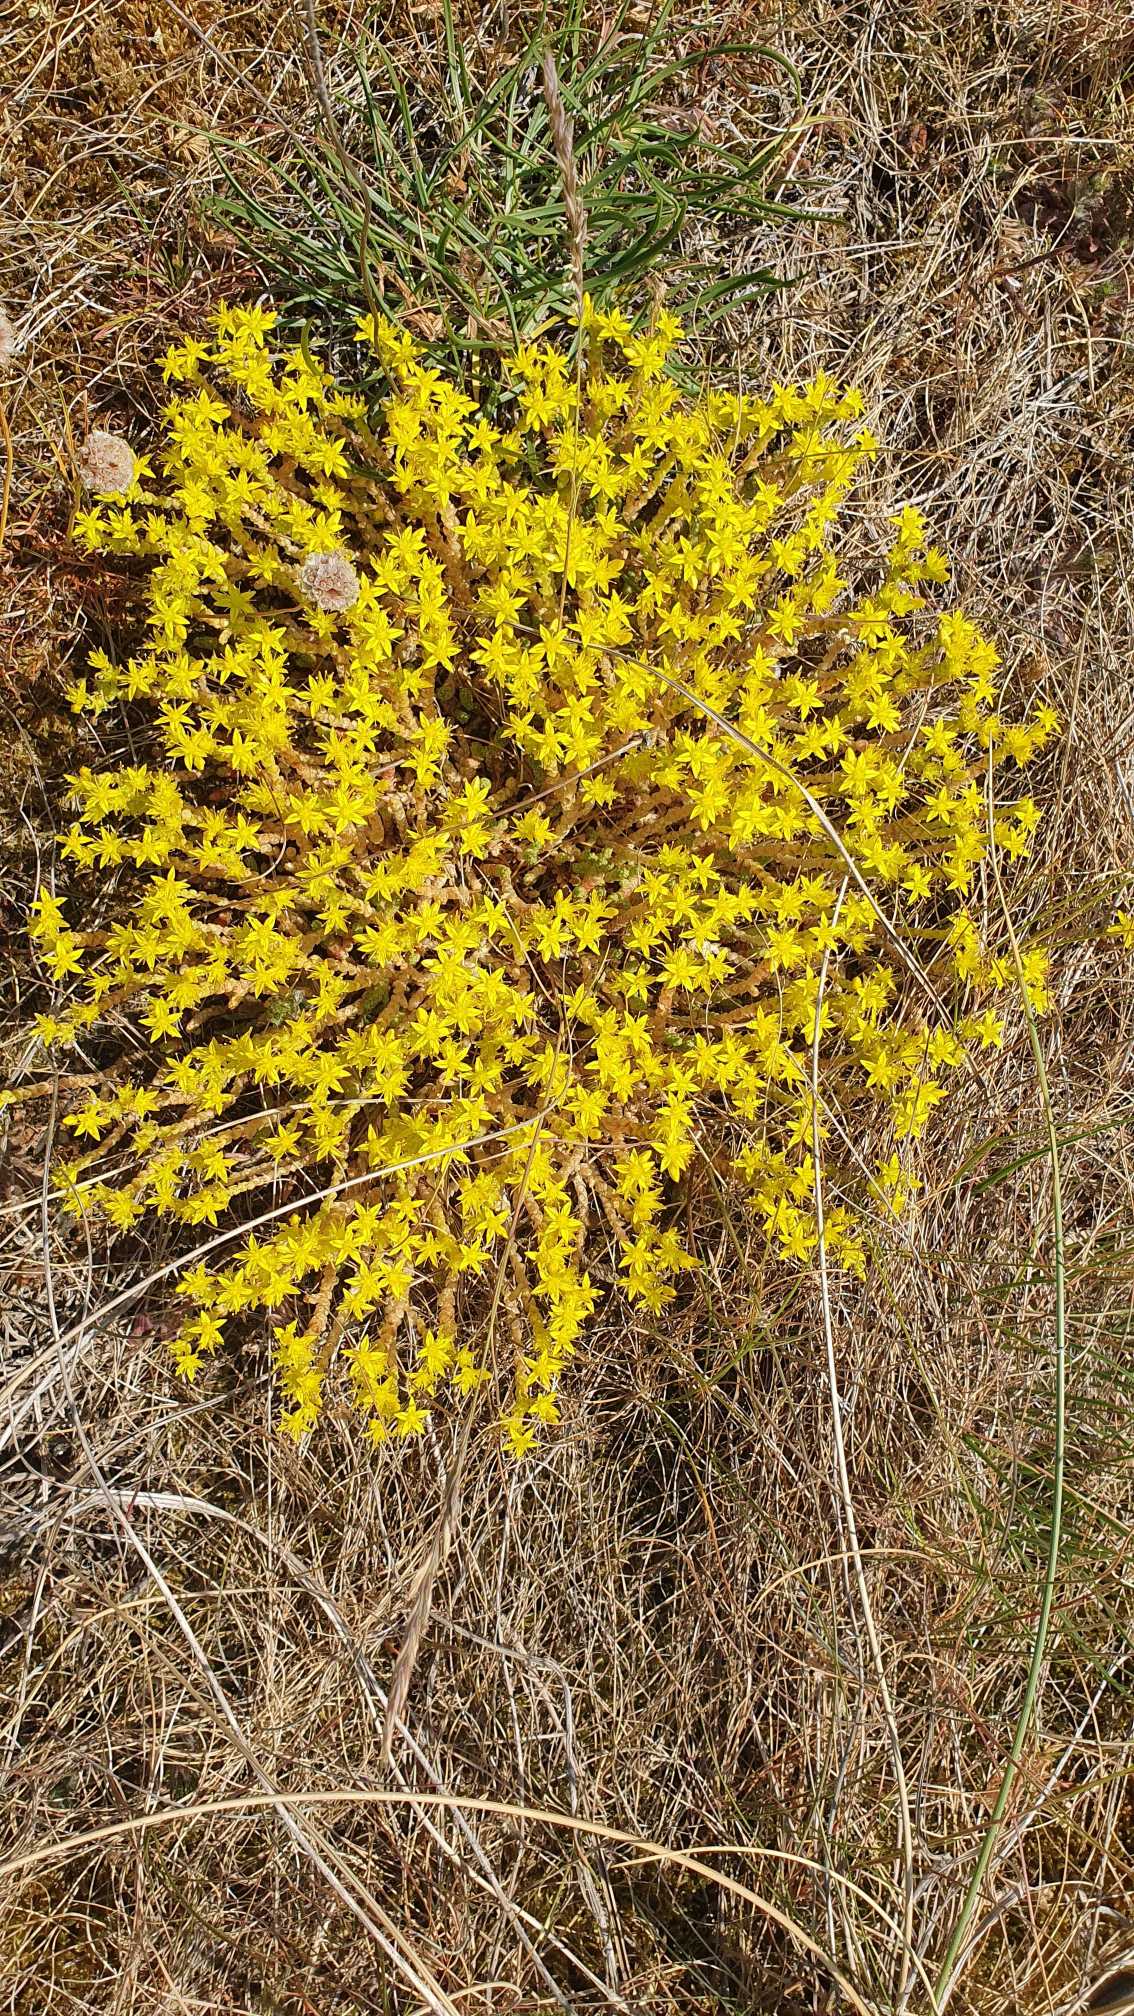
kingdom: Plantae
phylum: Tracheophyta
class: Magnoliopsida
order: Saxifragales
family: Crassulaceae
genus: Sedum
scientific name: Sedum acre
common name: Bidende stenurt
